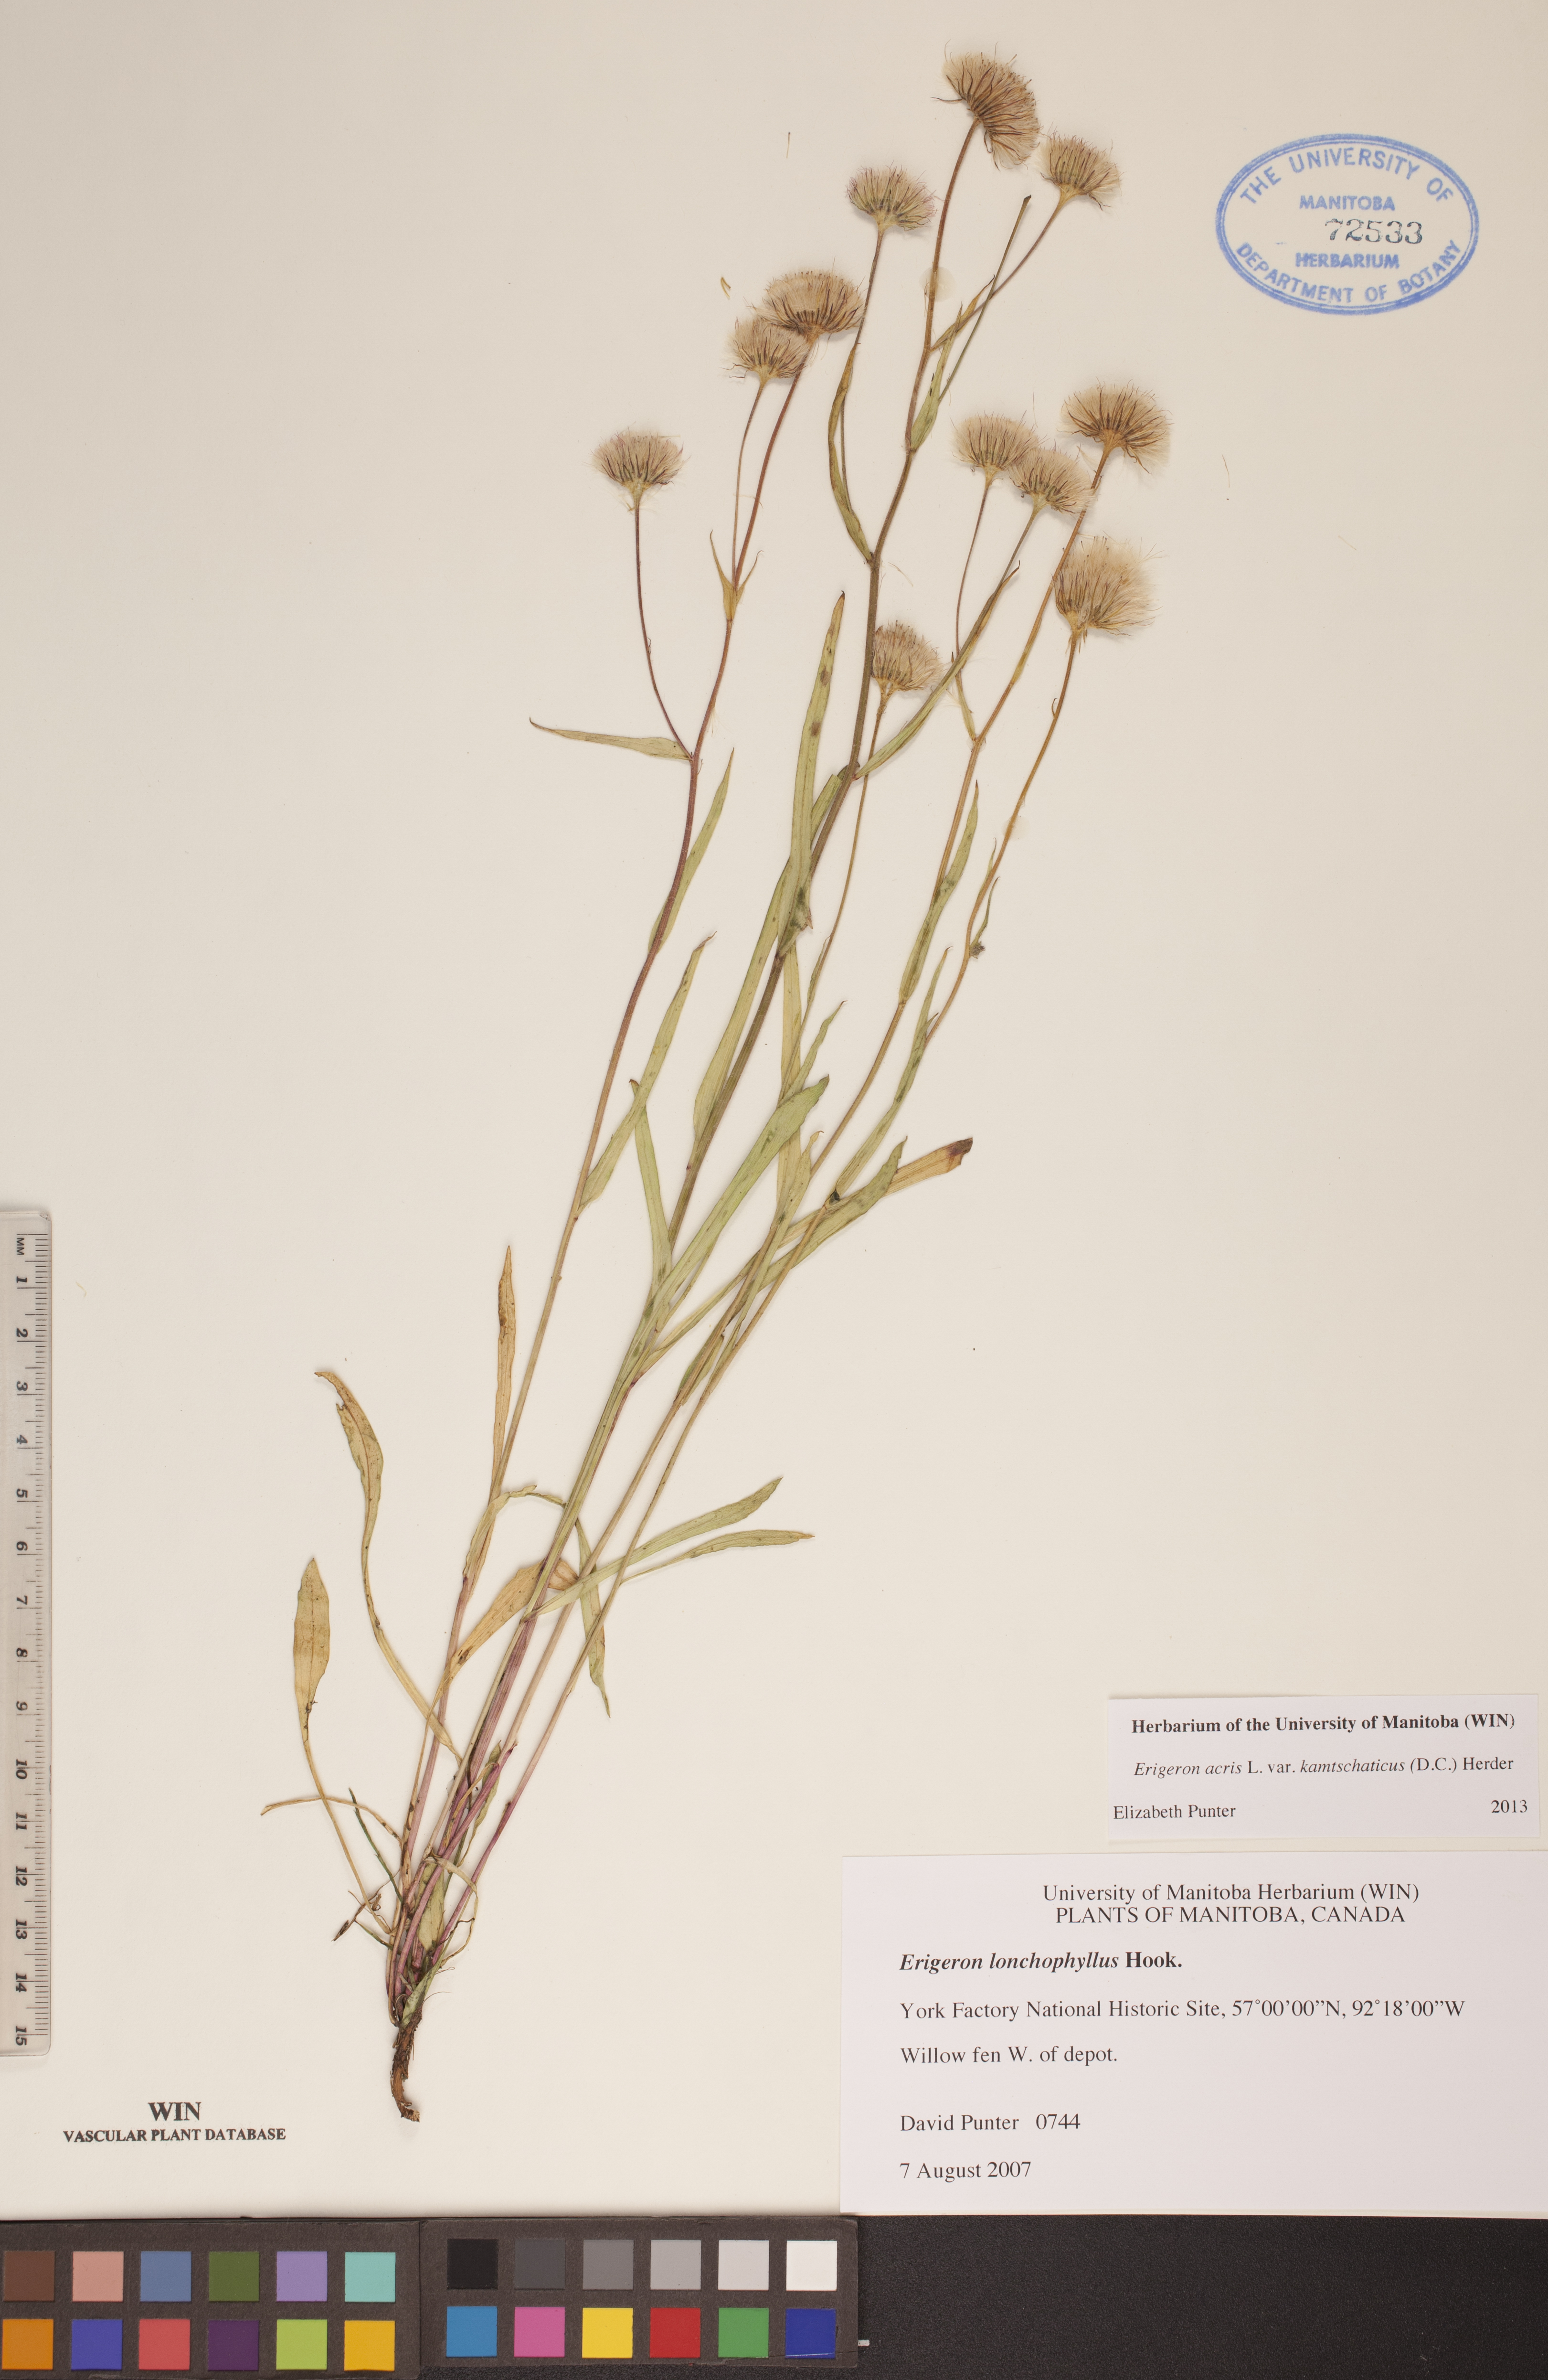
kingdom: Plantae
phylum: Tracheophyta
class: Magnoliopsida
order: Asterales
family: Asteraceae
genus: Erigeron
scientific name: Erigeron kamtschaticus
